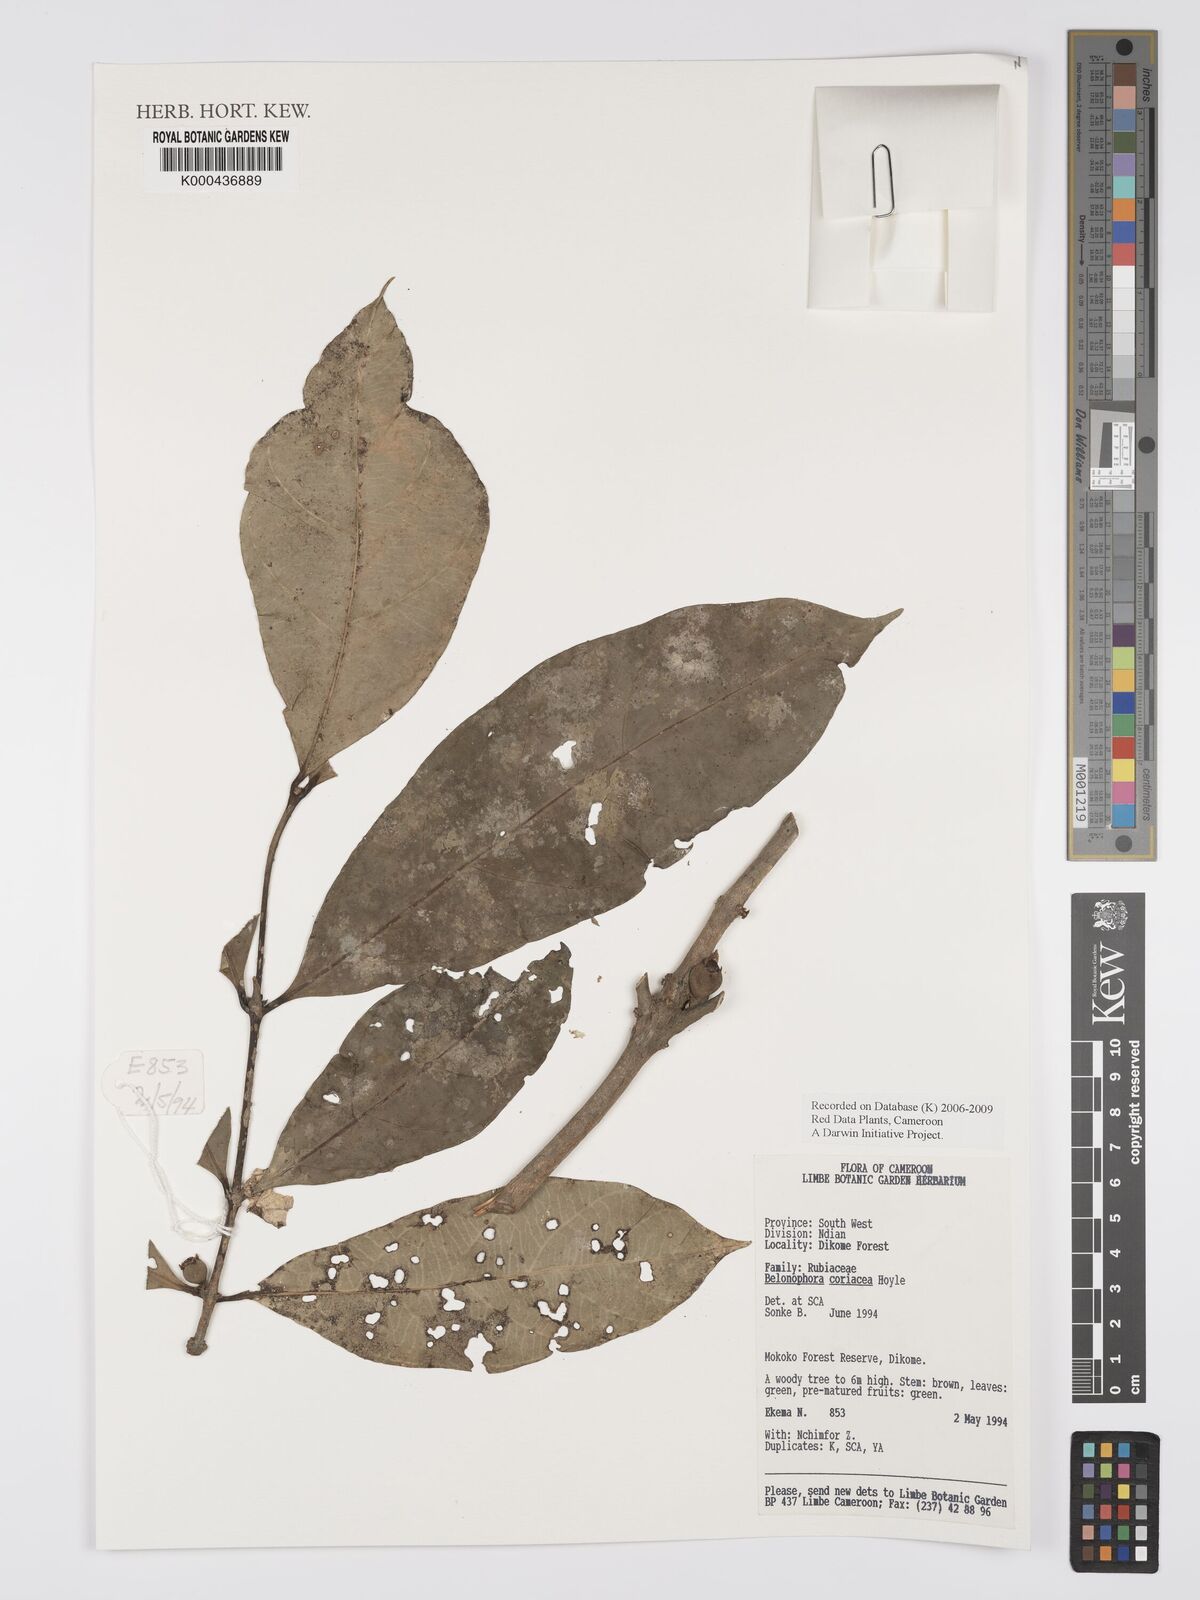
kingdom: Plantae
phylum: Tracheophyta
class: Magnoliopsida
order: Gentianales
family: Rubiaceae
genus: Belonophora
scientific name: Belonophora coriacea
